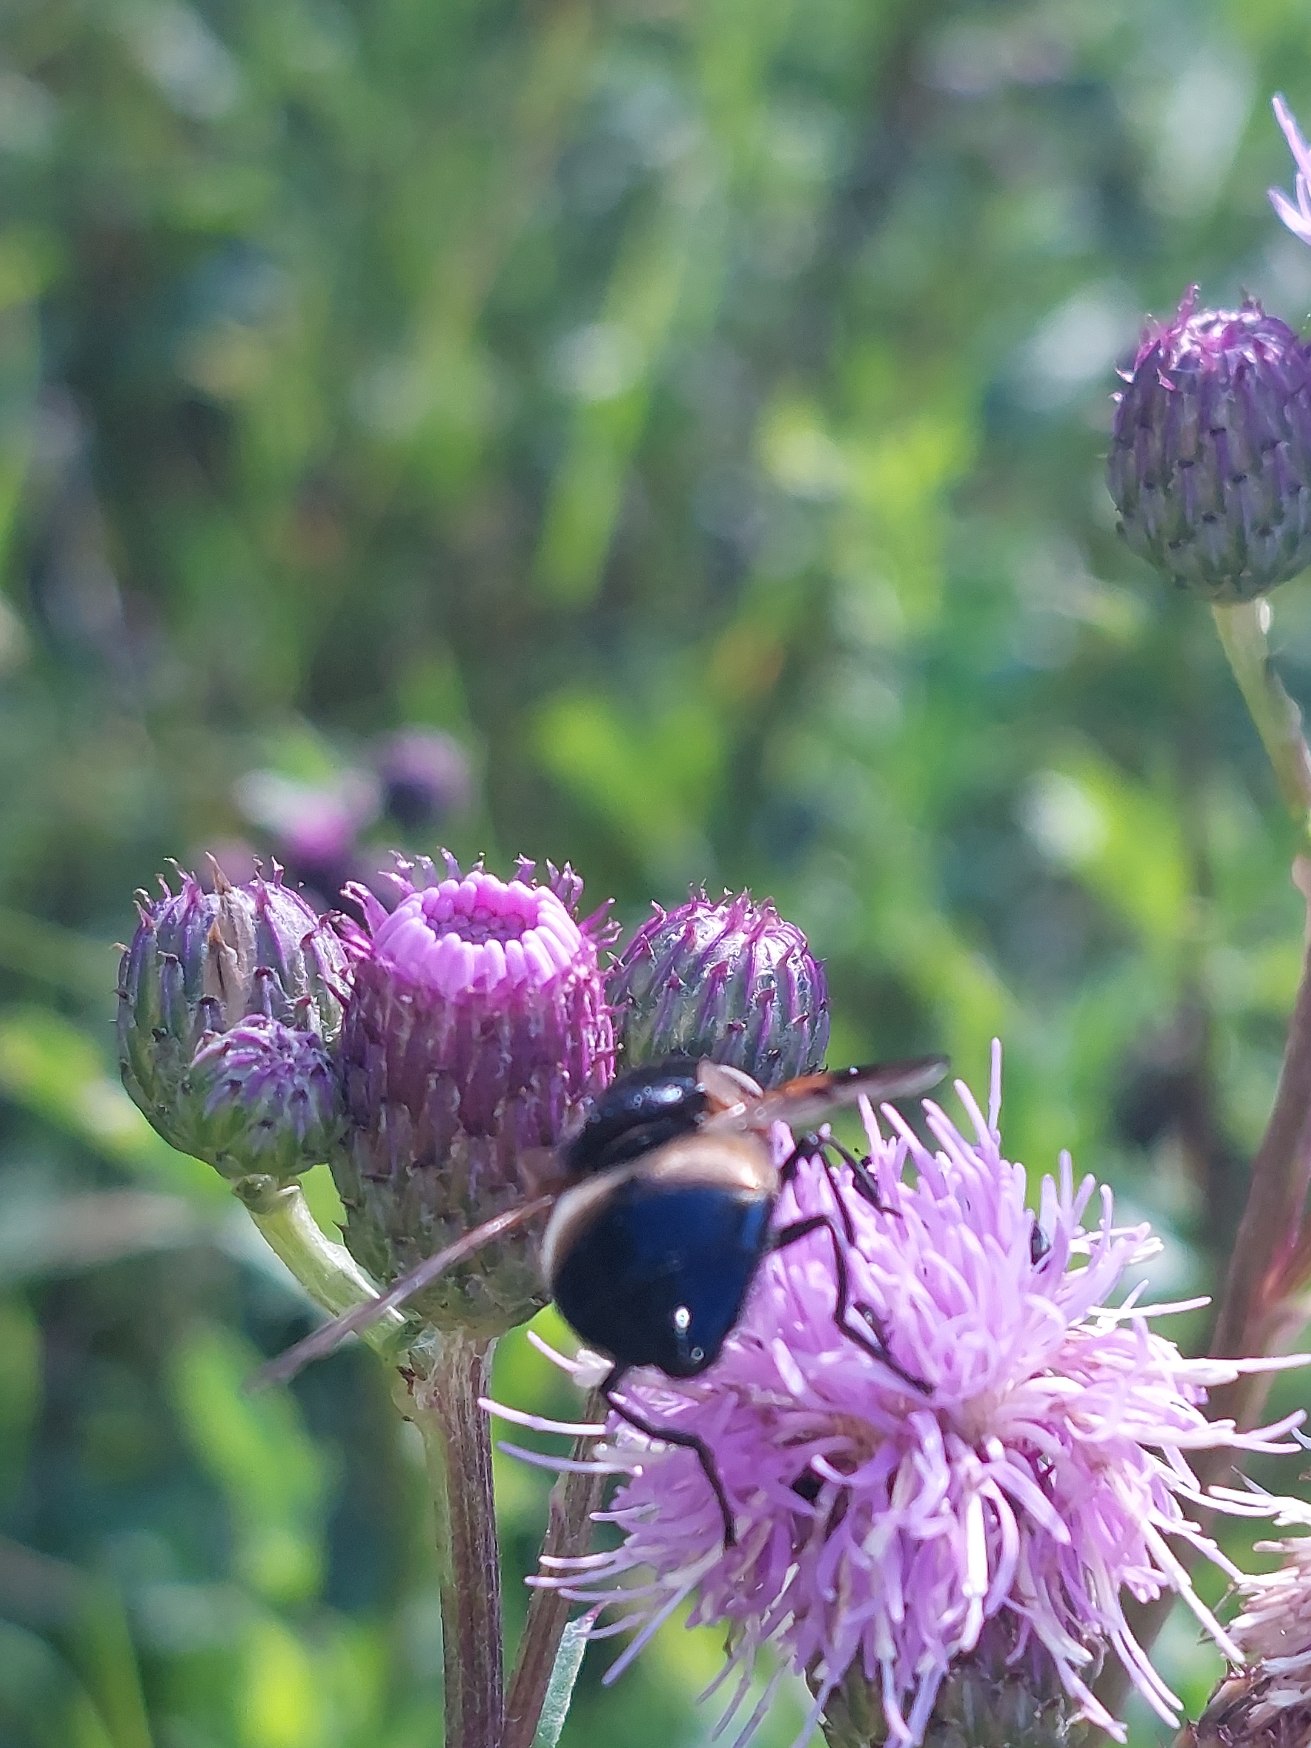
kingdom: Animalia
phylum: Arthropoda
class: Insecta
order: Diptera
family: Syrphidae
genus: Volucella
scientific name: Volucella pellucens
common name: Hvidbåndet humlesvirreflue
